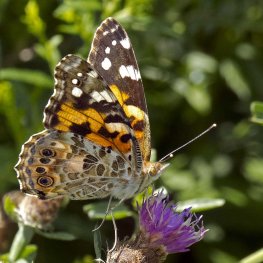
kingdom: Animalia
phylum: Arthropoda
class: Insecta
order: Lepidoptera
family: Nymphalidae
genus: Vanessa
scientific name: Vanessa cardui
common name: Painted Lady
